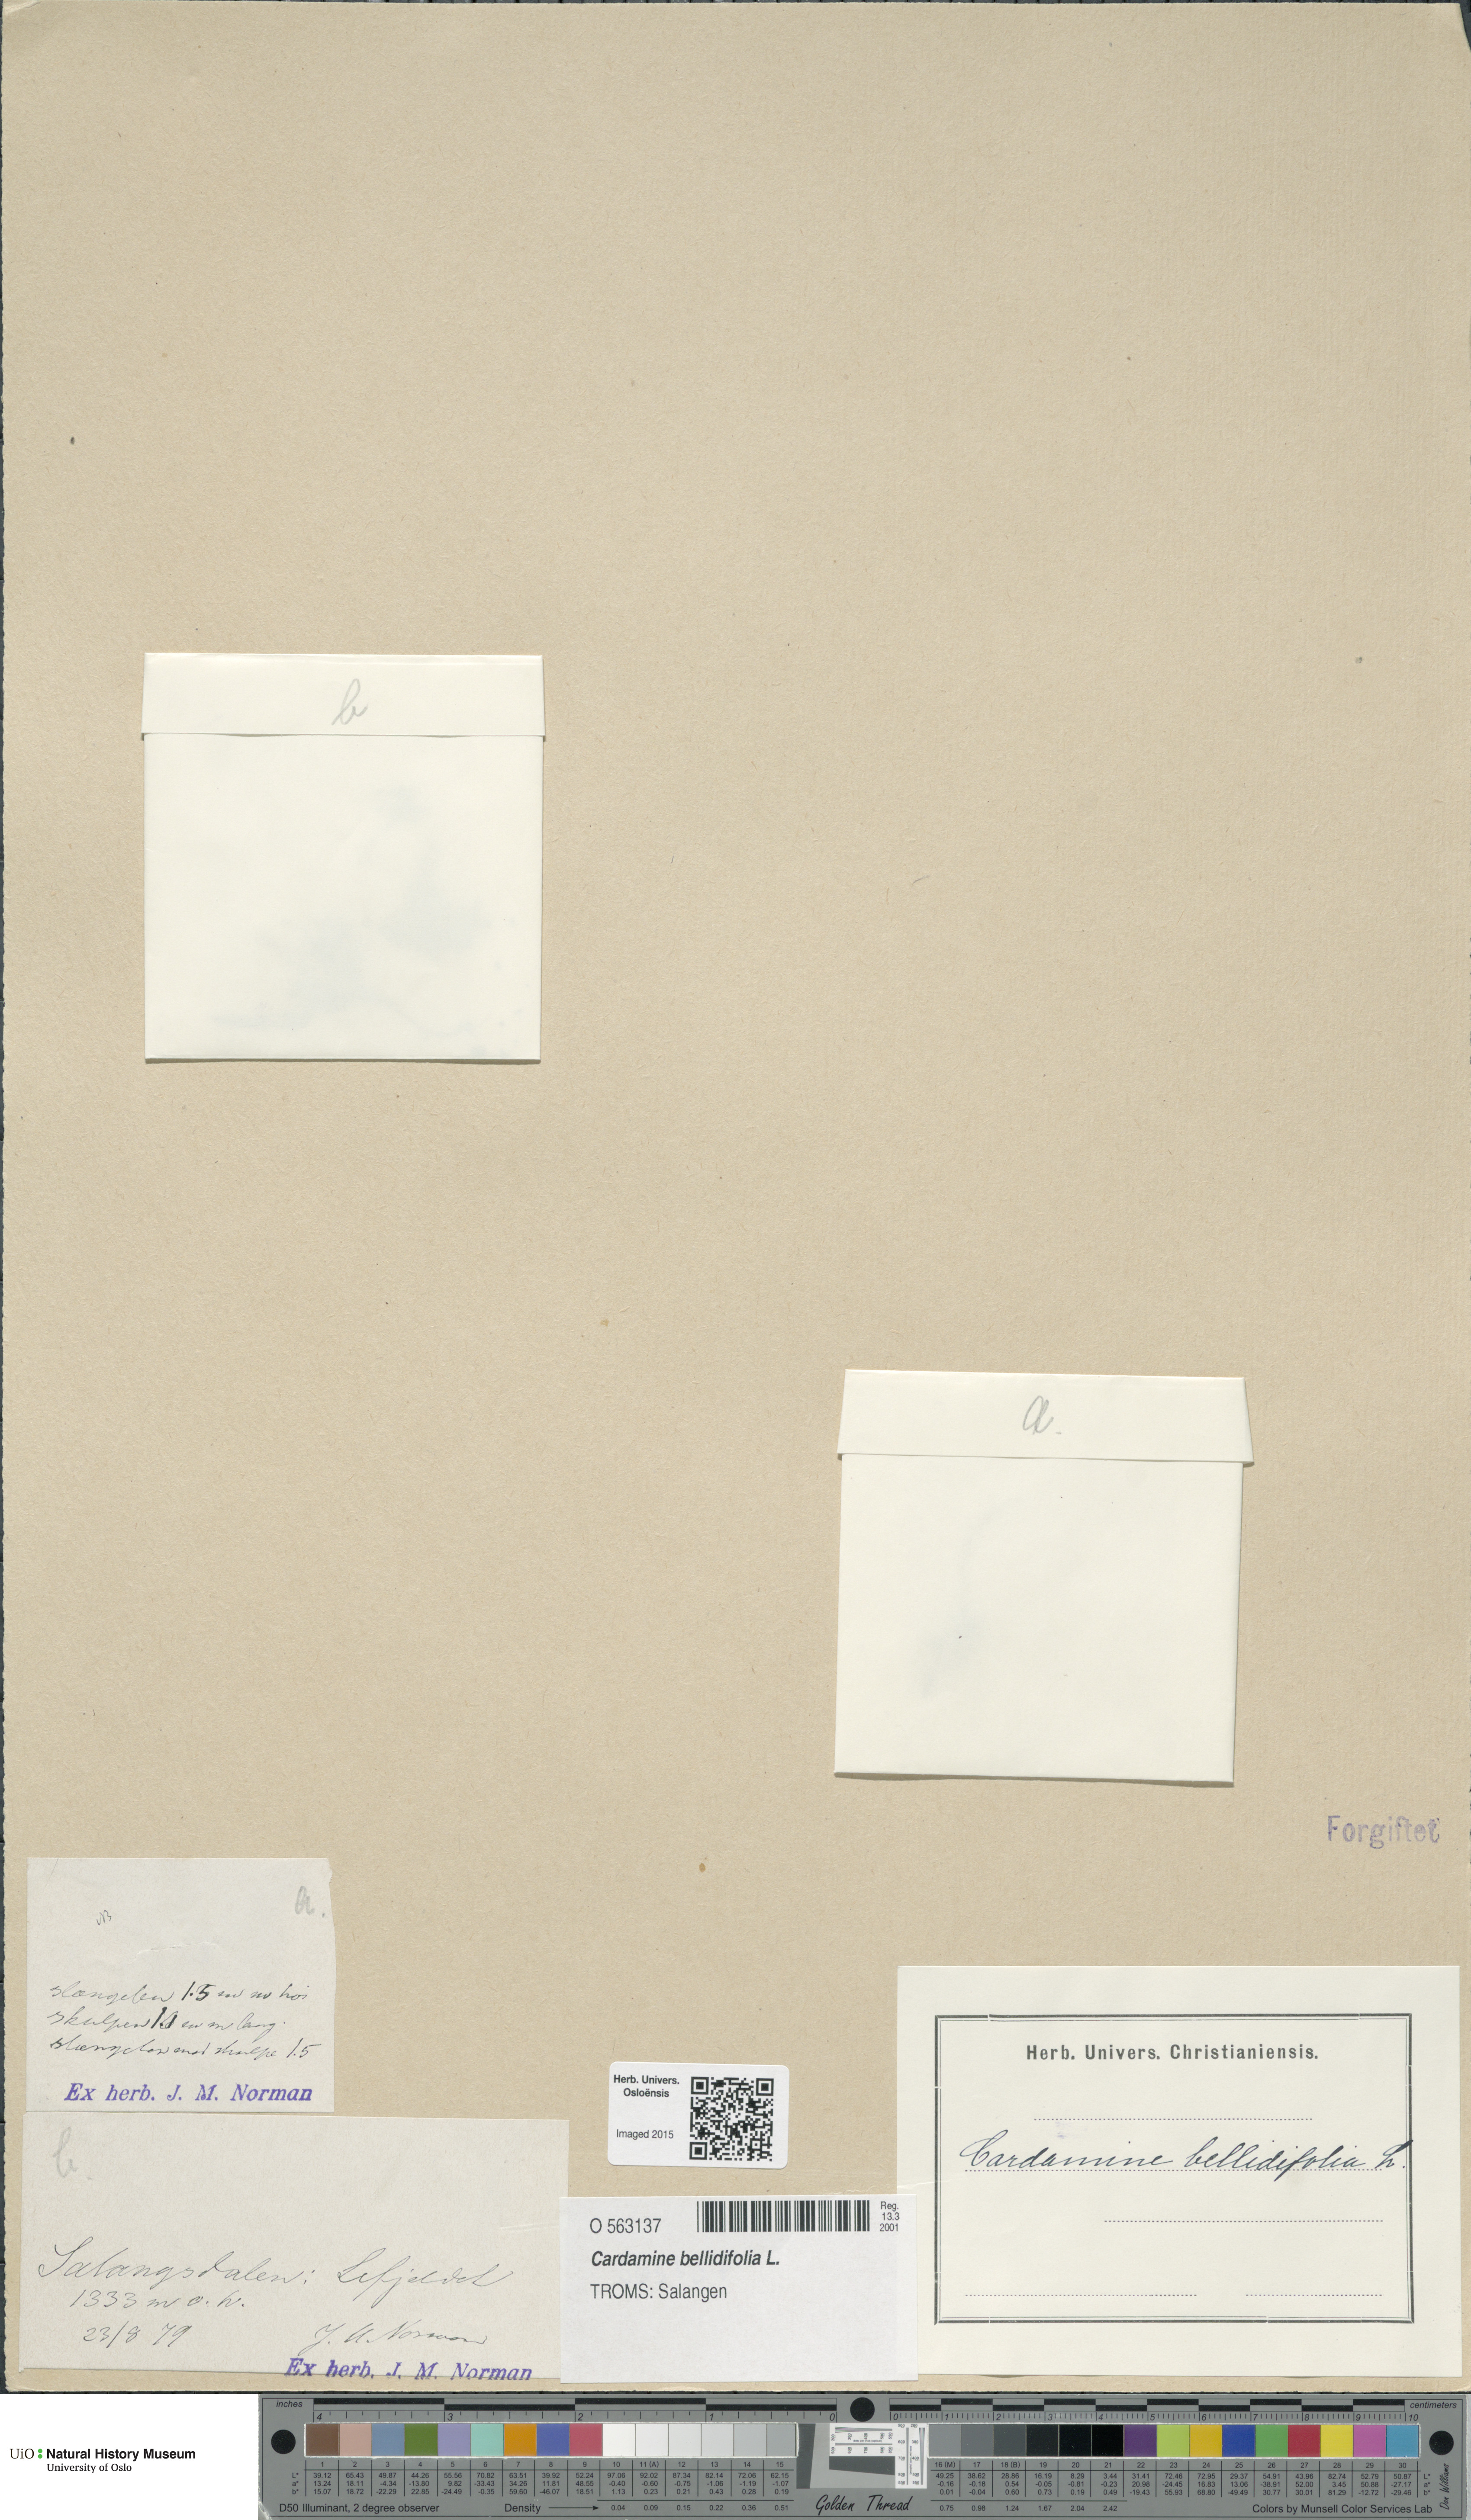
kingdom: Plantae
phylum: Tracheophyta
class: Magnoliopsida
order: Brassicales
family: Brassicaceae
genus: Cardamine
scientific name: Cardamine bellidifolia
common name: Alpine bittercress
